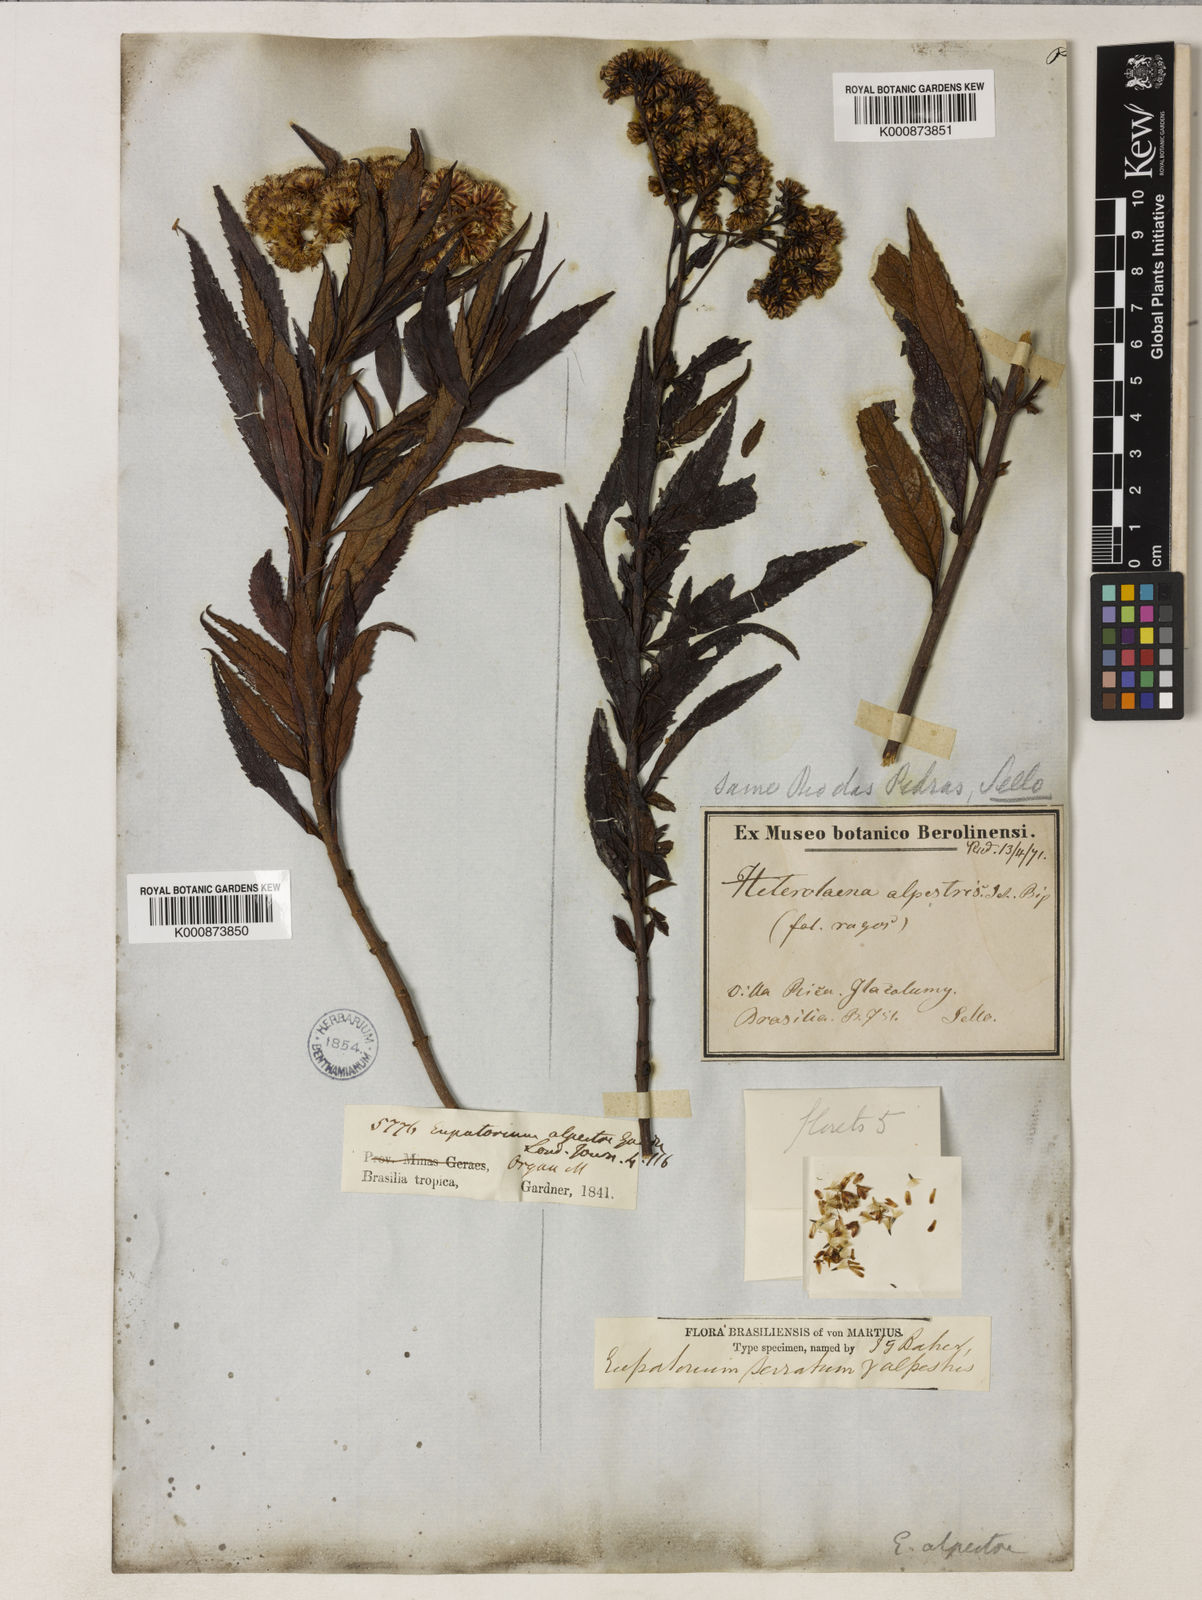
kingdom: Plantae
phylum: Tracheophyta
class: Magnoliopsida
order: Asterales
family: Asteraceae
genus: Grazielia
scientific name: Grazielia serrata
